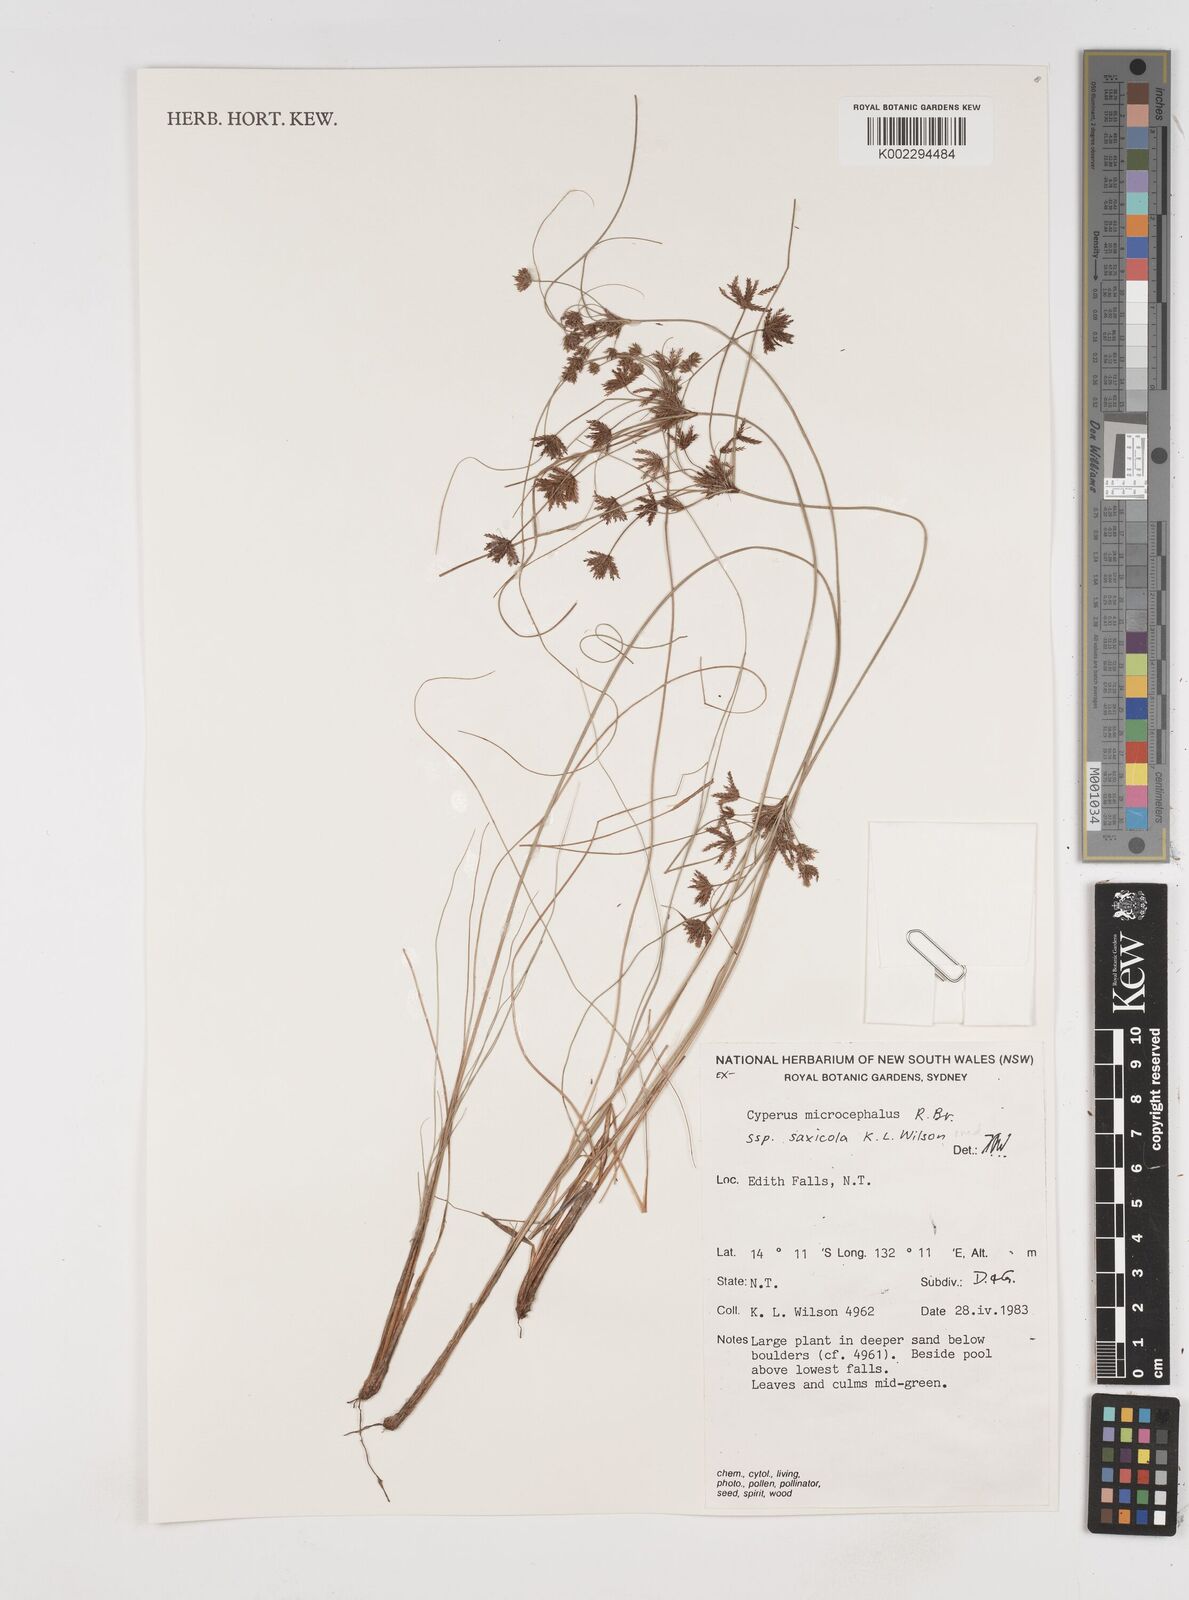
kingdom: Plantae
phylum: Tracheophyta
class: Liliopsida
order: Poales
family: Cyperaceae
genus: Cyperus
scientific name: Cyperus microcephalus
